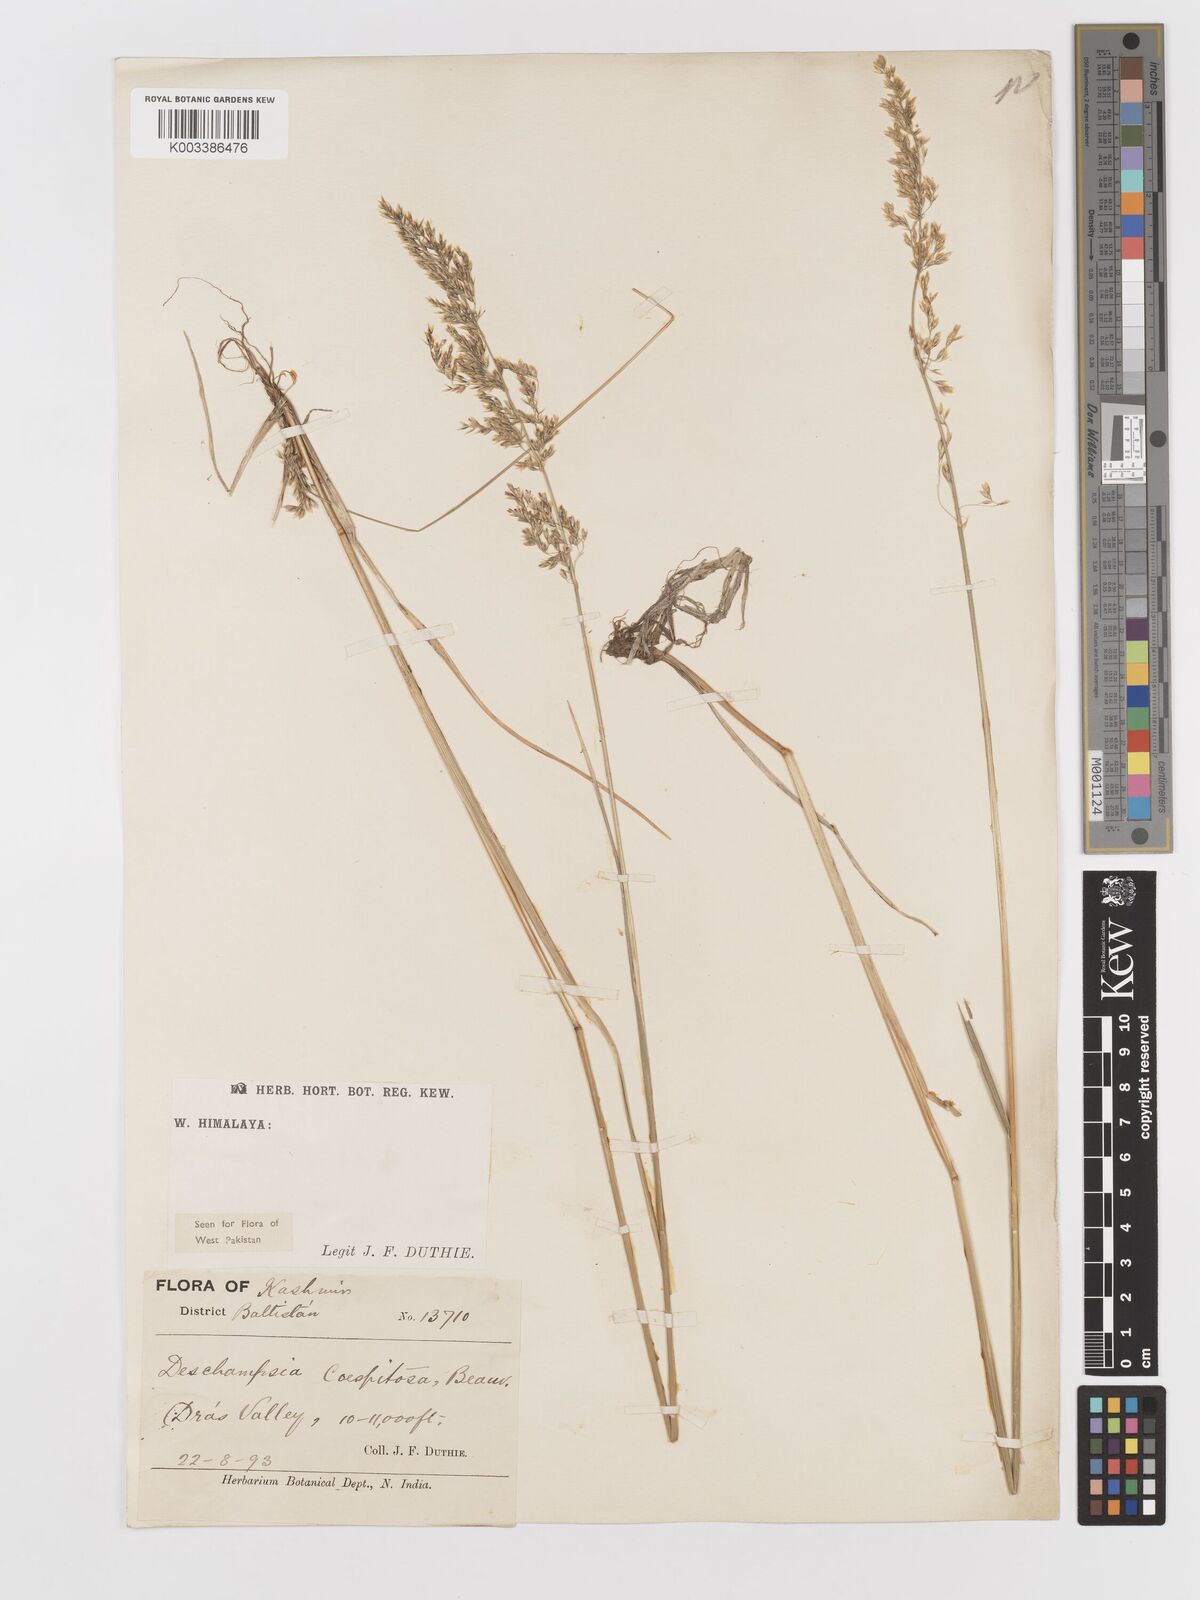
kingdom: Plantae
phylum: Tracheophyta
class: Liliopsida
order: Poales
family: Poaceae
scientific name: Poaceae
